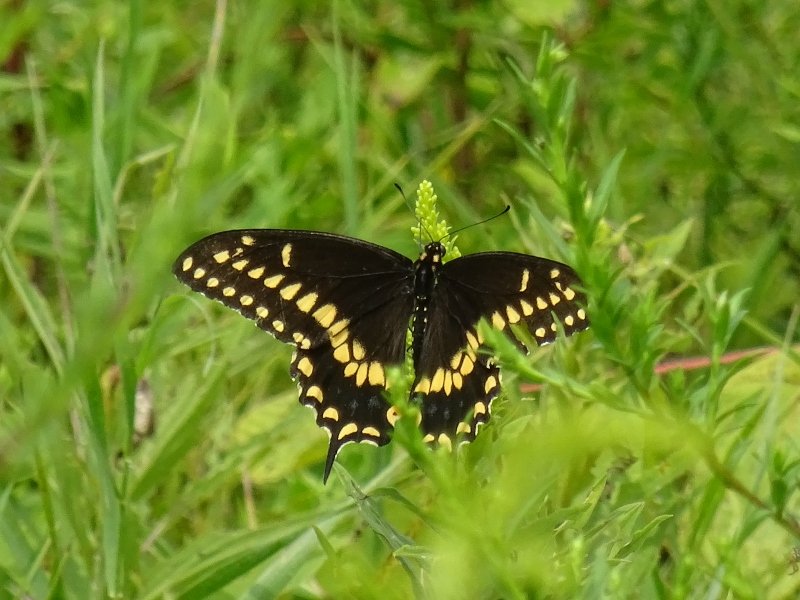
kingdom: Animalia
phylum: Arthropoda
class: Insecta
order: Lepidoptera
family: Papilionidae
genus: Papilio
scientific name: Papilio polyxenes
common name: Black Swallowtail
